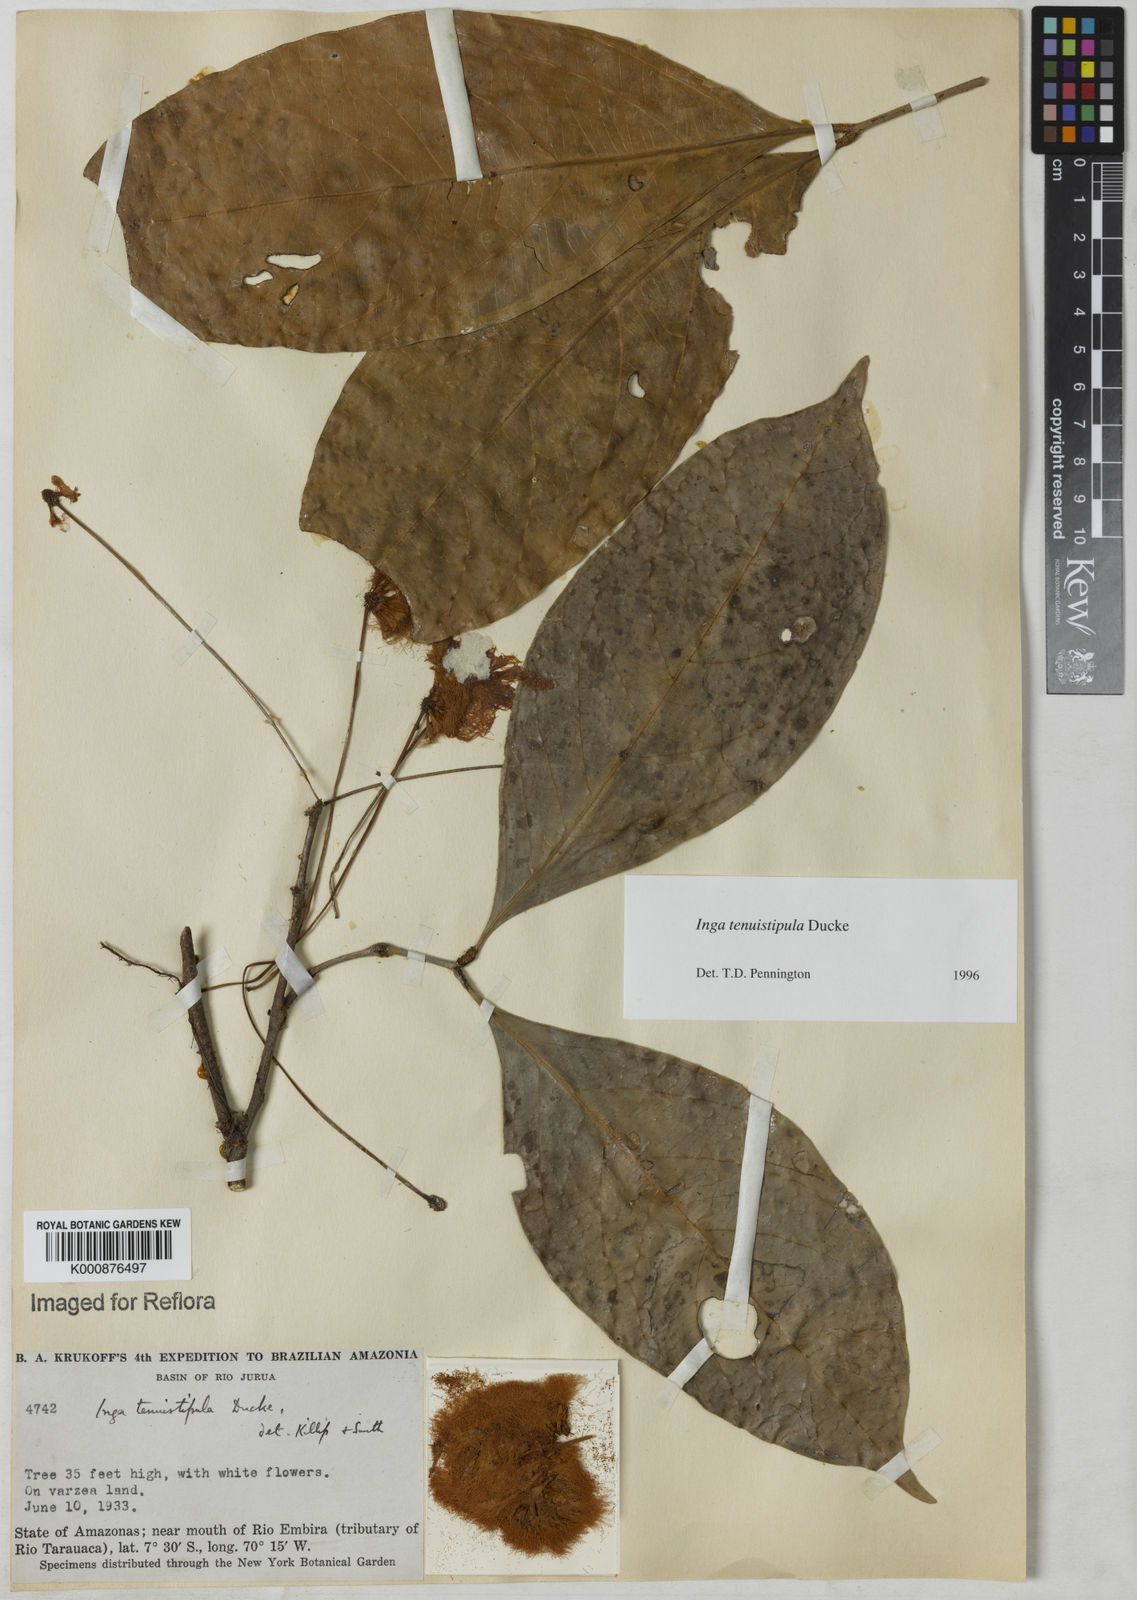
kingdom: Plantae
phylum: Tracheophyta
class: Magnoliopsida
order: Fabales
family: Fabaceae
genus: Inga
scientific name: Inga tenuistipula
